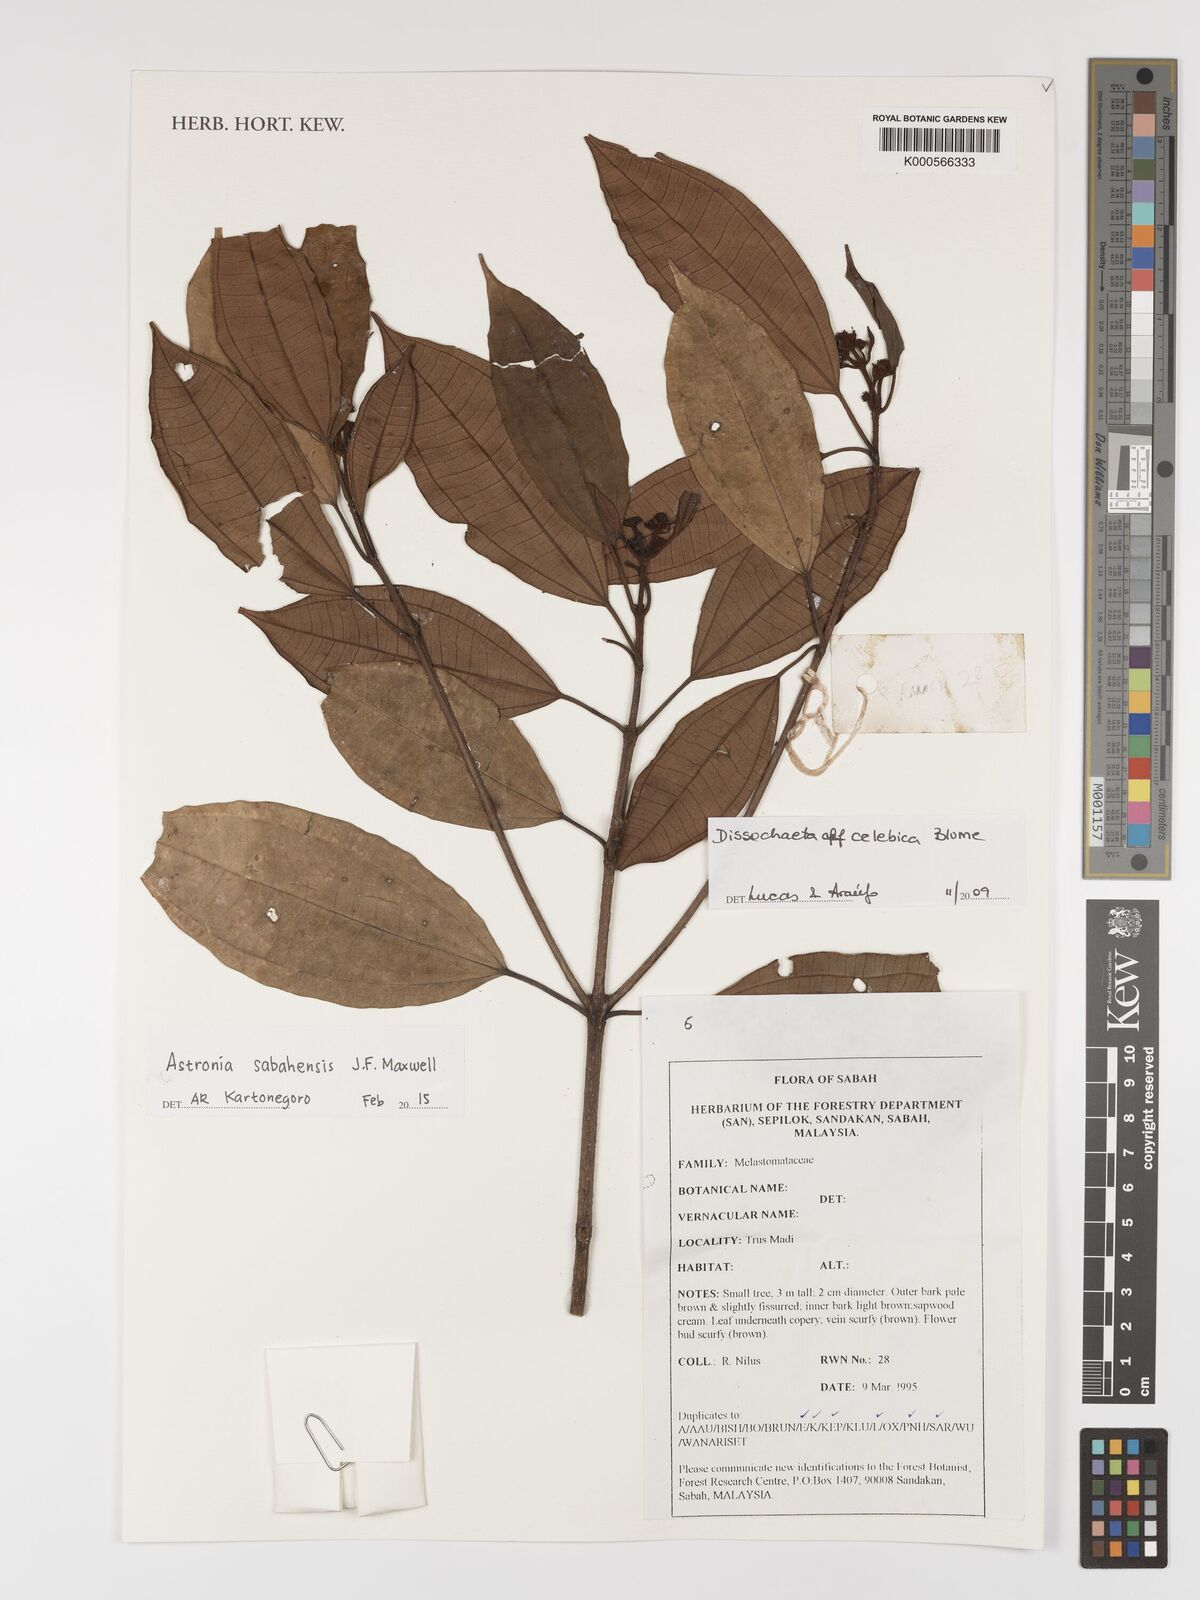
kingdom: Plantae
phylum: Tracheophyta
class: Magnoliopsida
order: Myrtales
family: Melastomataceae
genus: Astronia
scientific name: Astronia sabahensis
